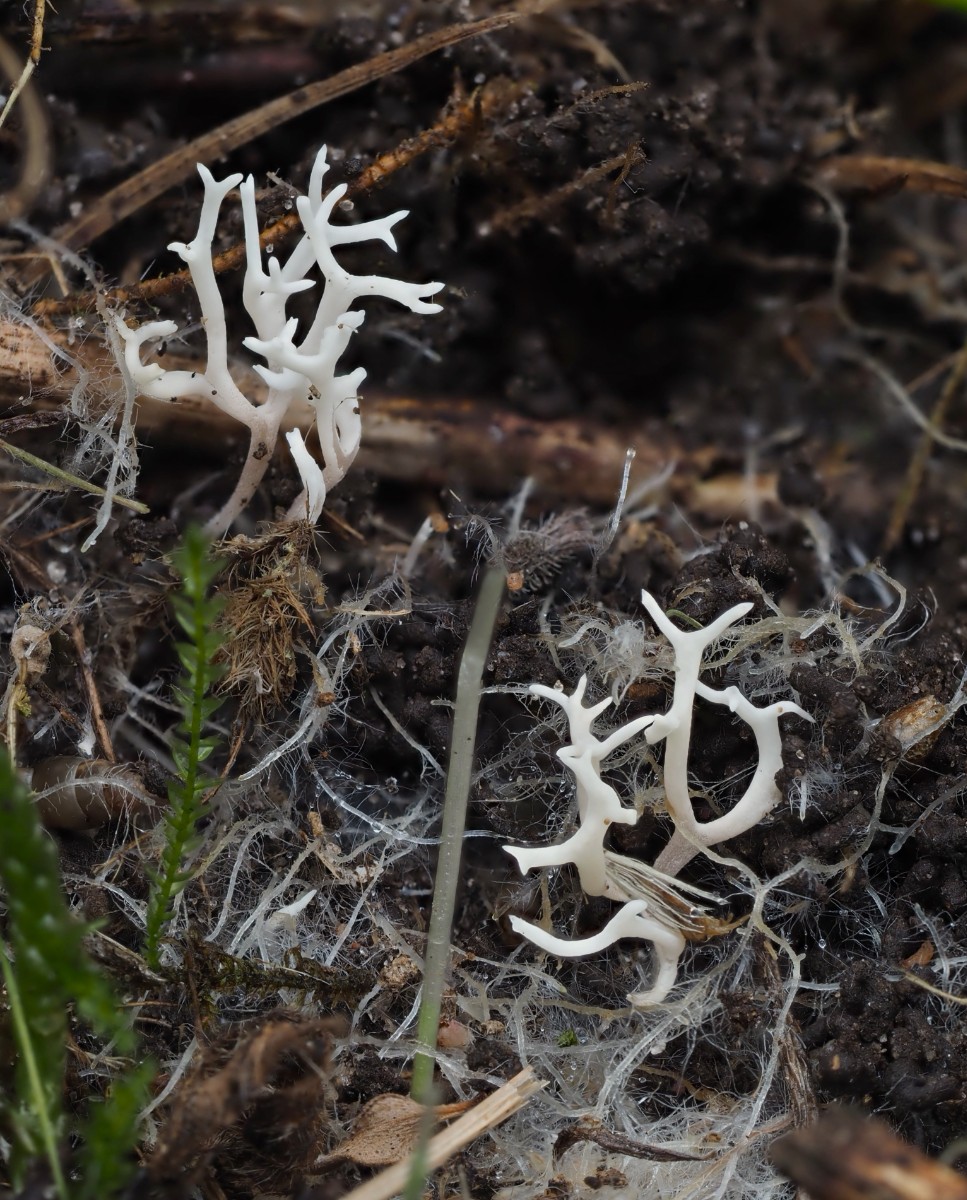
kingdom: Fungi
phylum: Basidiomycota
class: Agaricomycetes
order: Agaricales
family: Clavariaceae
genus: Ramariopsis
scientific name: Ramariopsis
